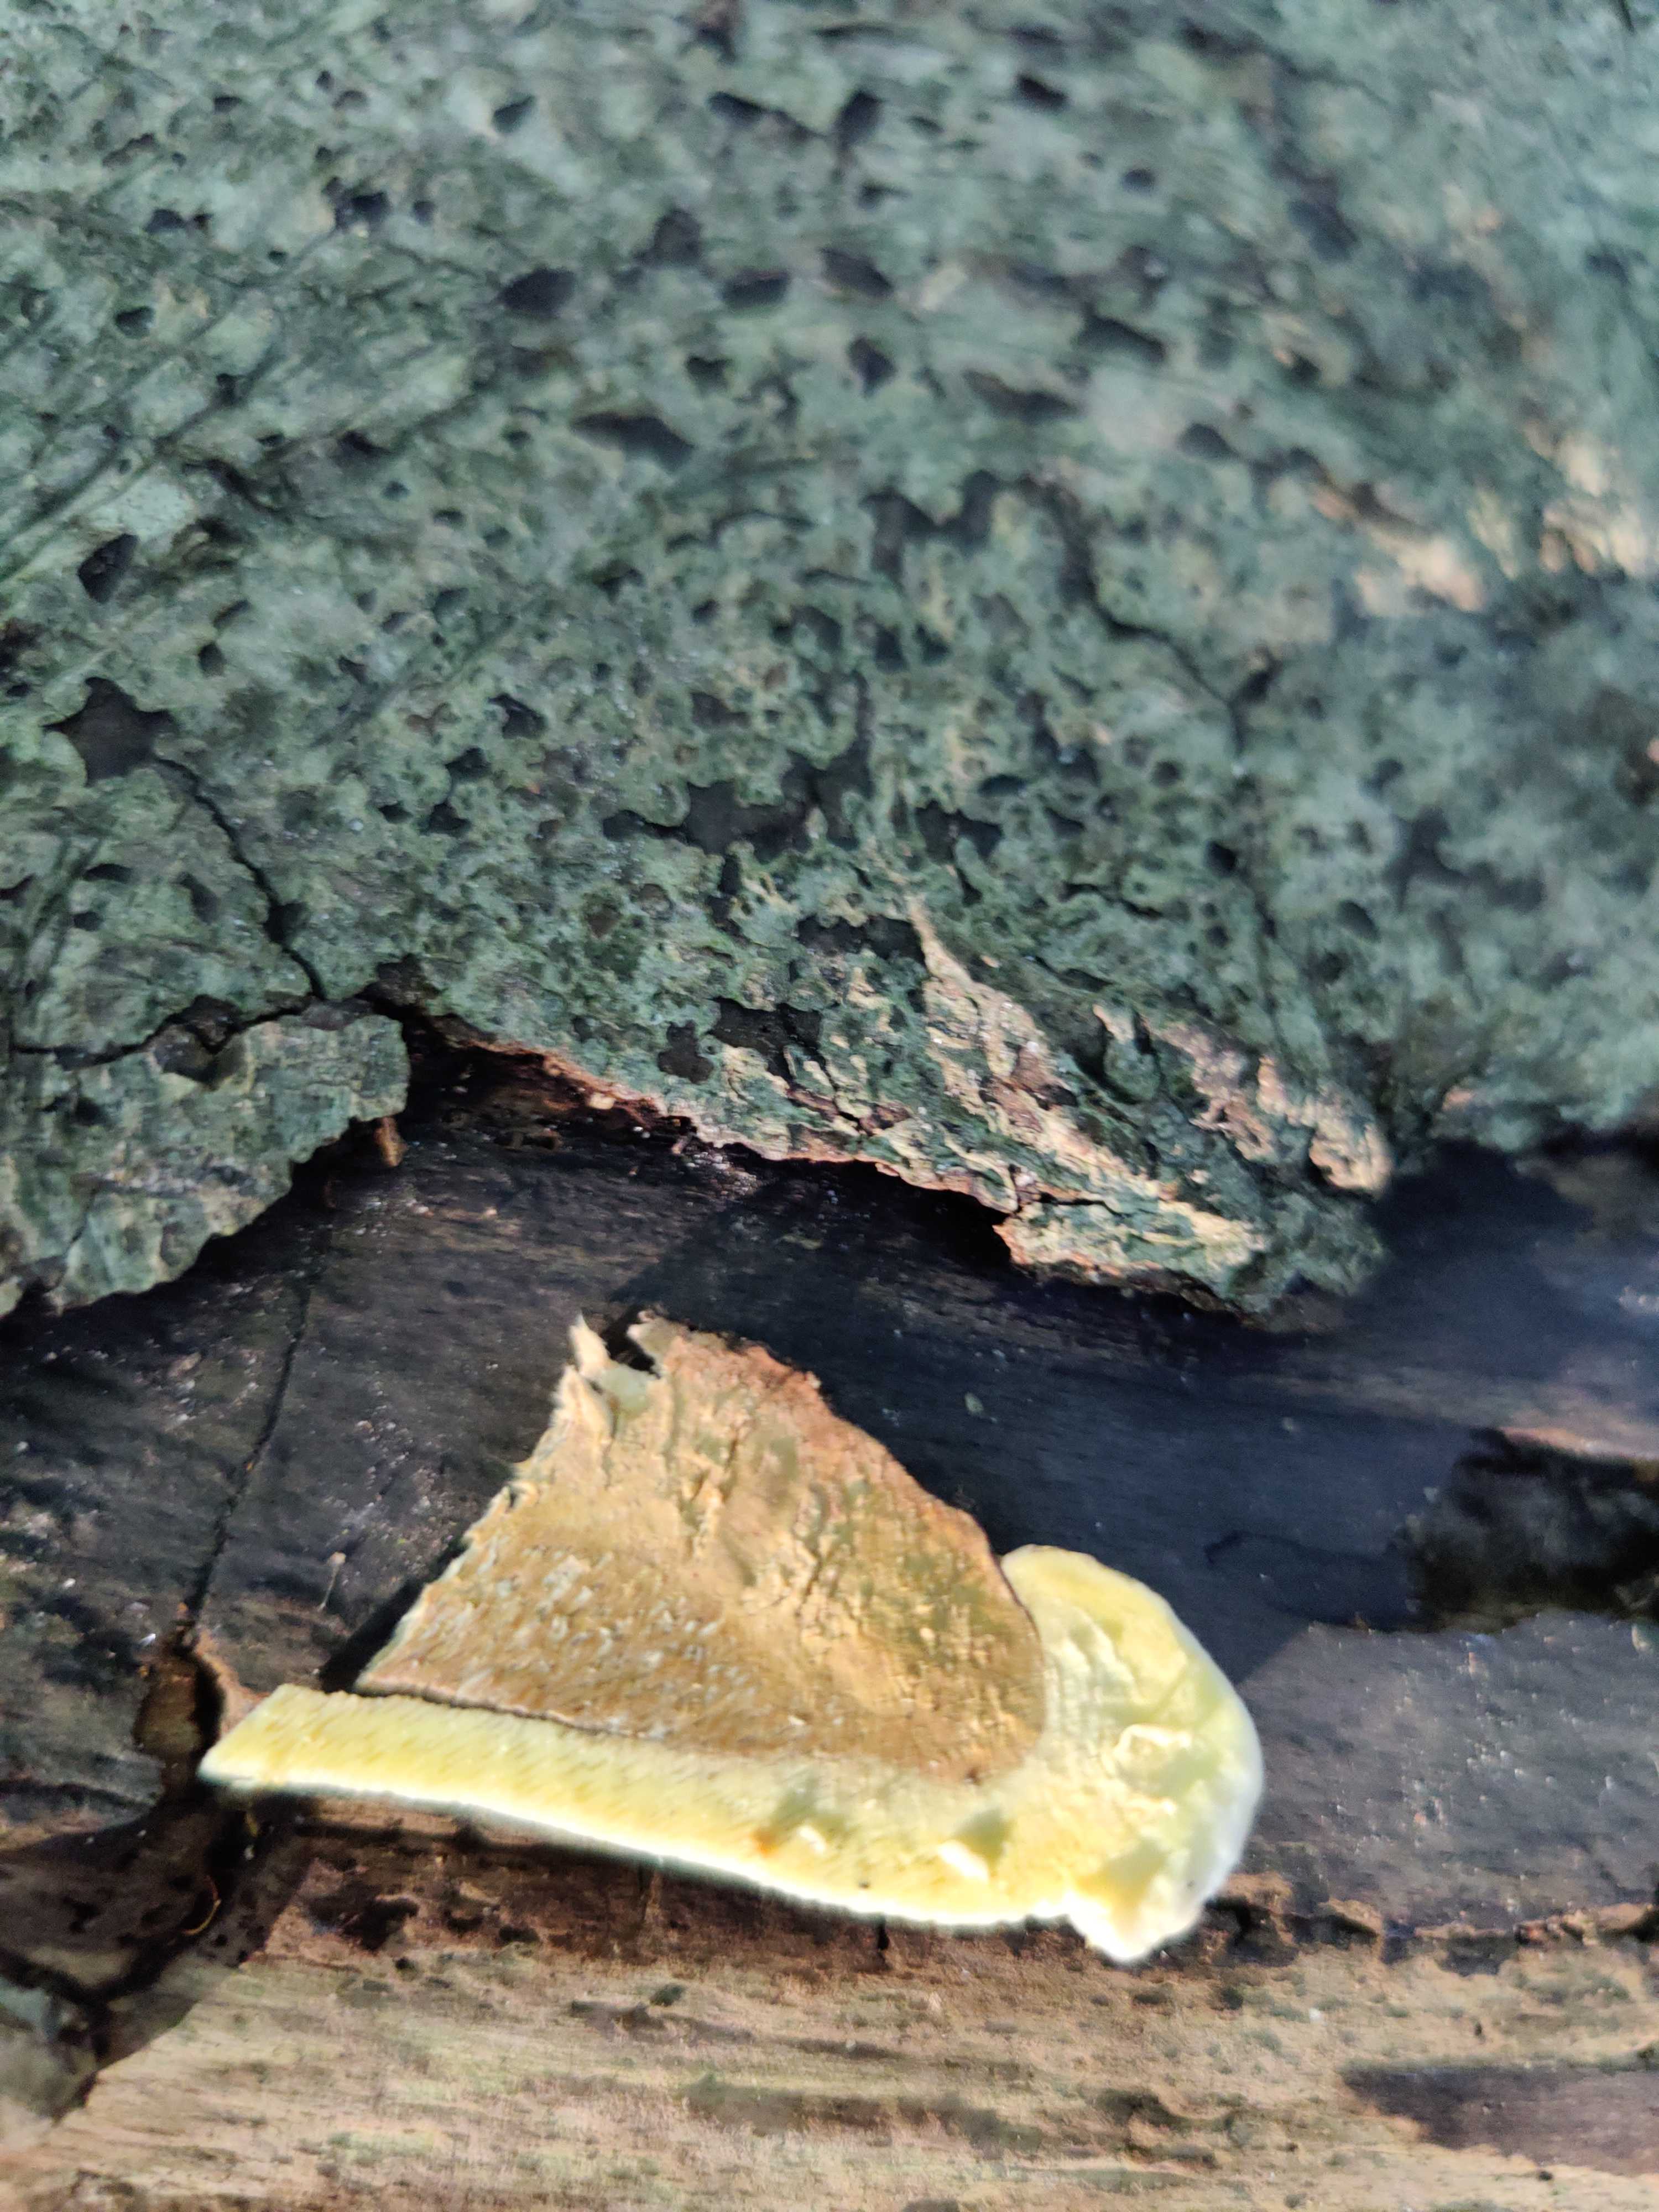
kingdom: Fungi
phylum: Basidiomycota
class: Agaricomycetes
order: Polyporales
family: Fomitopsidaceae
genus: Fomitopsis
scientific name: Fomitopsis pinicola
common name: randbæltet hovporesvamp
